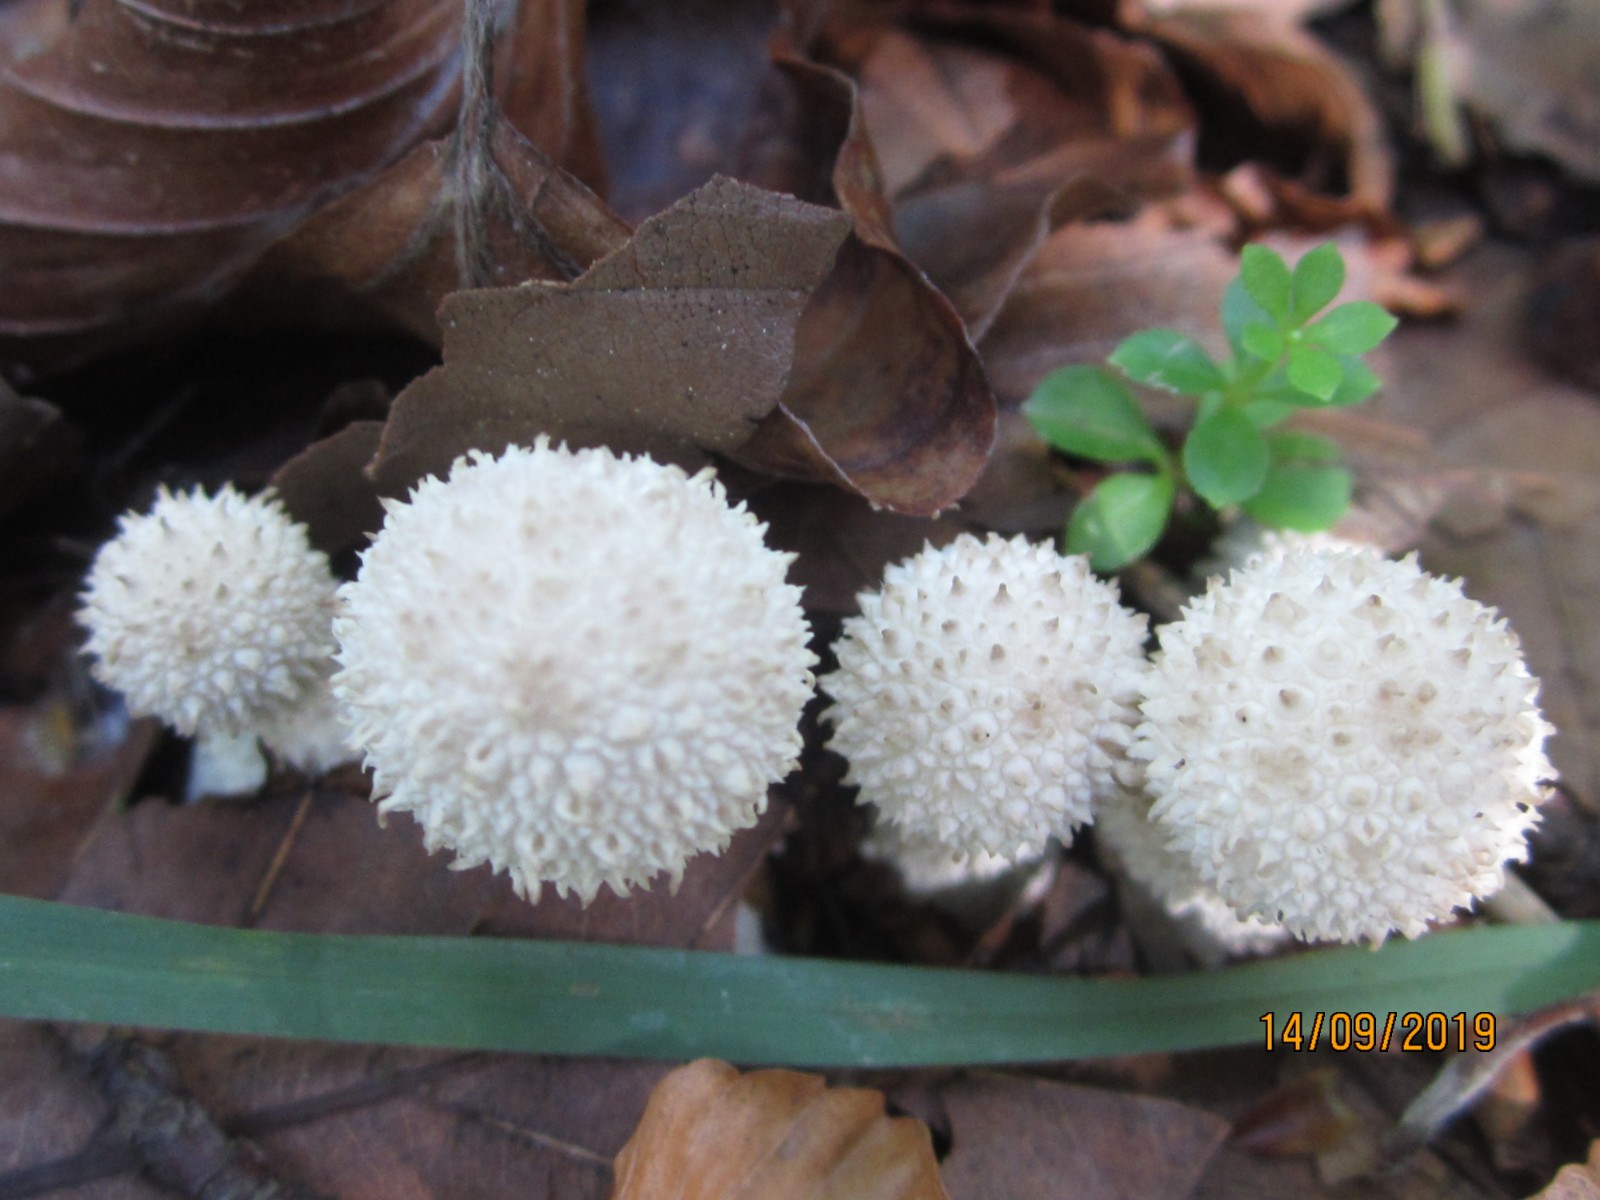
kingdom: Fungi
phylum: Basidiomycota
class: Agaricomycetes
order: Agaricales
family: Lycoperdaceae
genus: Lycoperdon
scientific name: Lycoperdon perlatum
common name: krystal-støvbold
